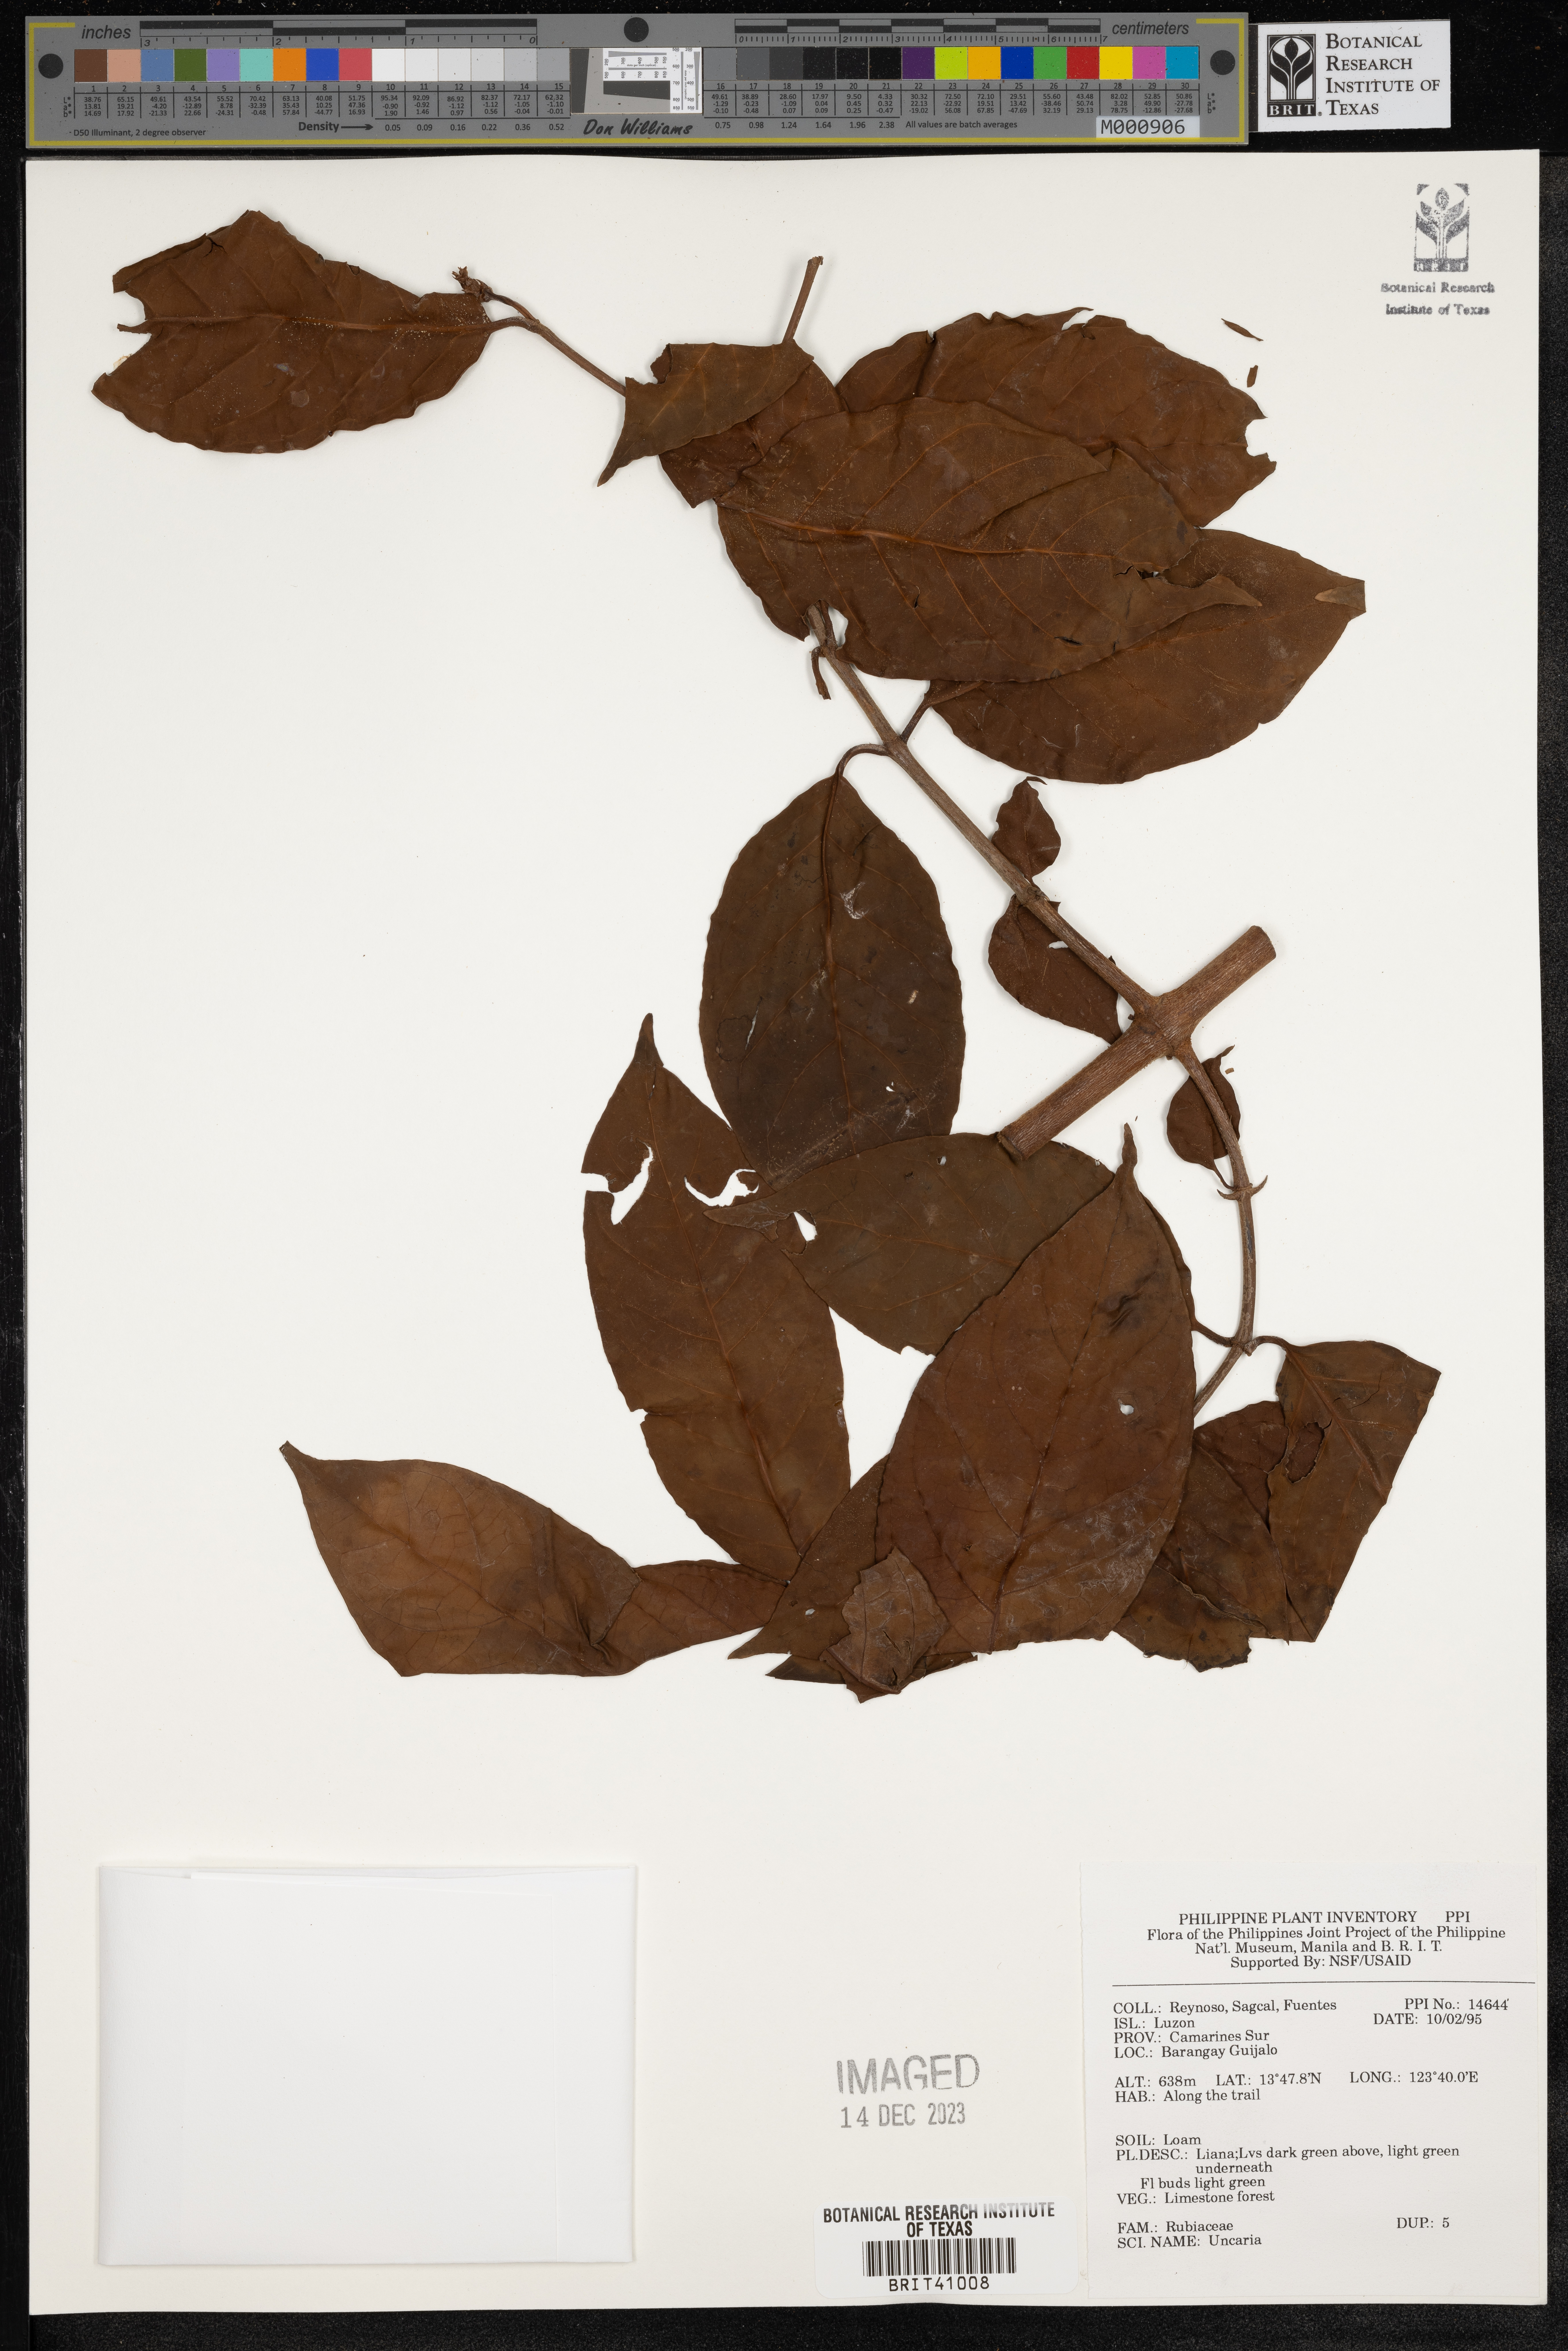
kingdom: Plantae
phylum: Tracheophyta
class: Magnoliopsida
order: Gentianales
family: Rubiaceae
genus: Uncaria
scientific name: Uncaria
